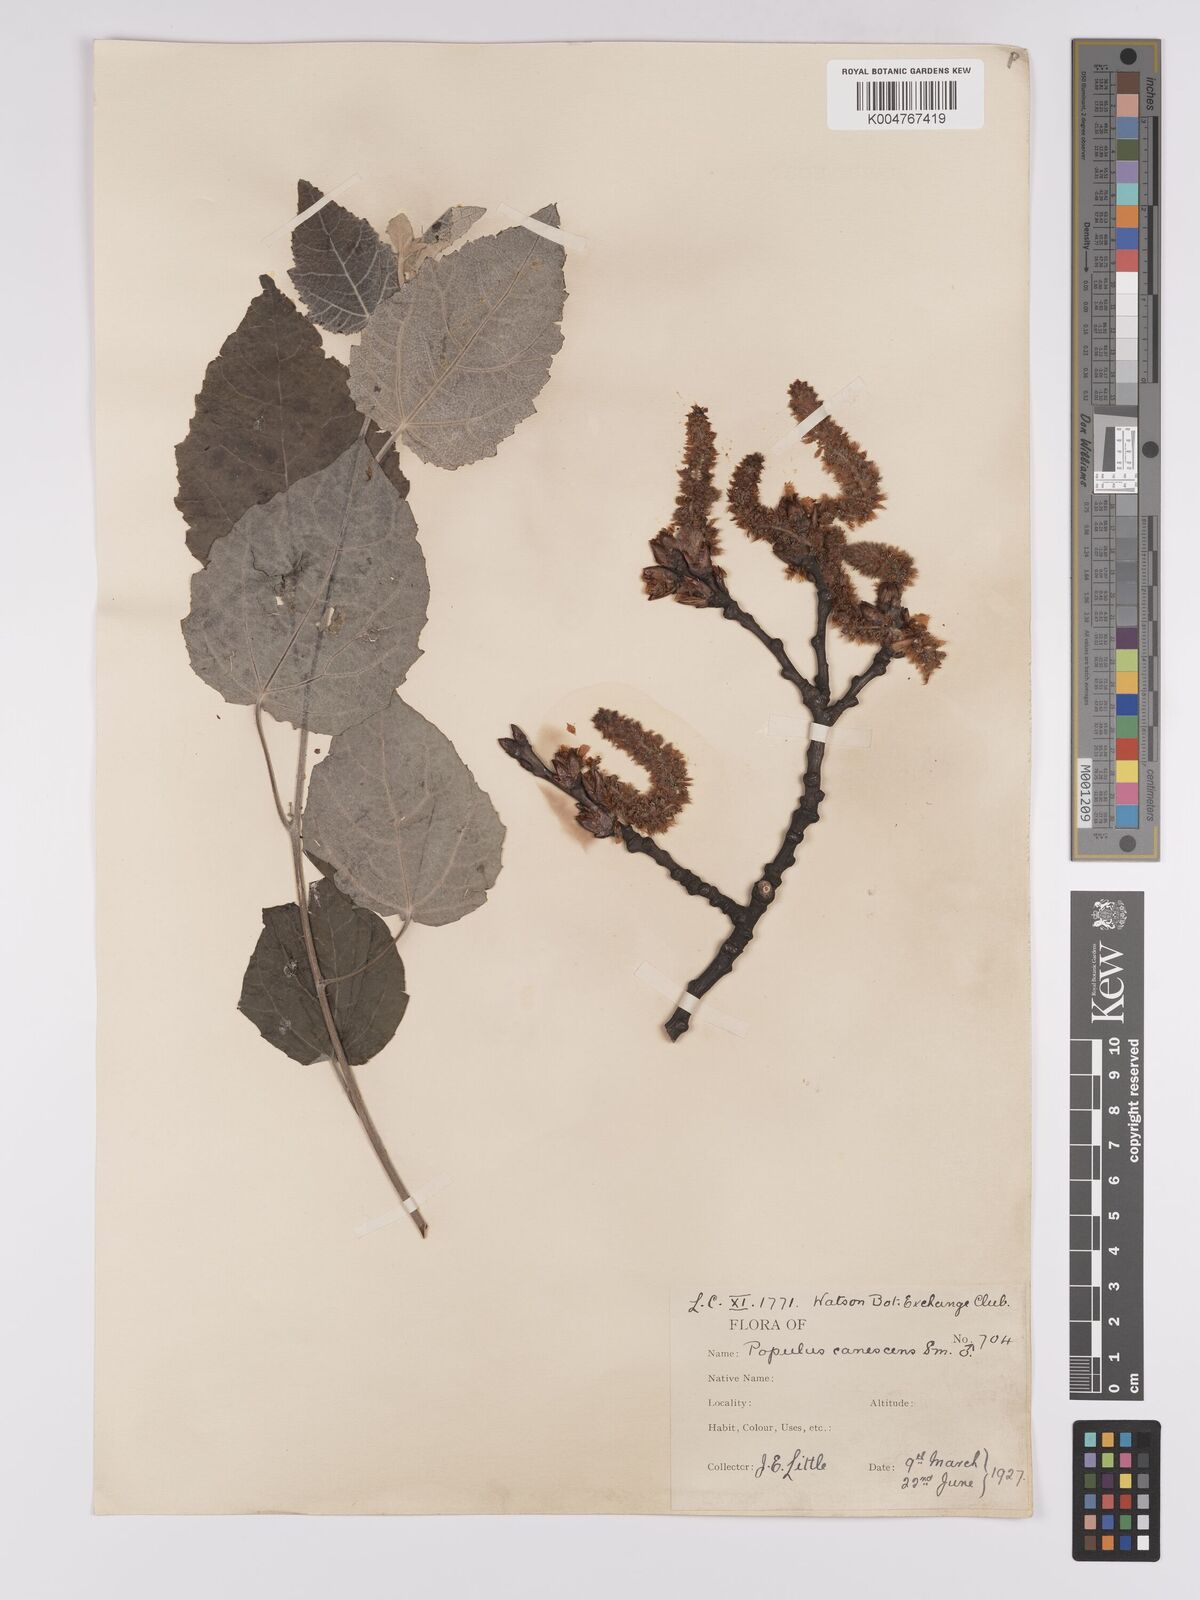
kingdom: Plantae
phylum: Tracheophyta
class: Magnoliopsida
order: Malpighiales
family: Salicaceae
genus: Populus
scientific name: Populus canescens
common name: Gray poplar
